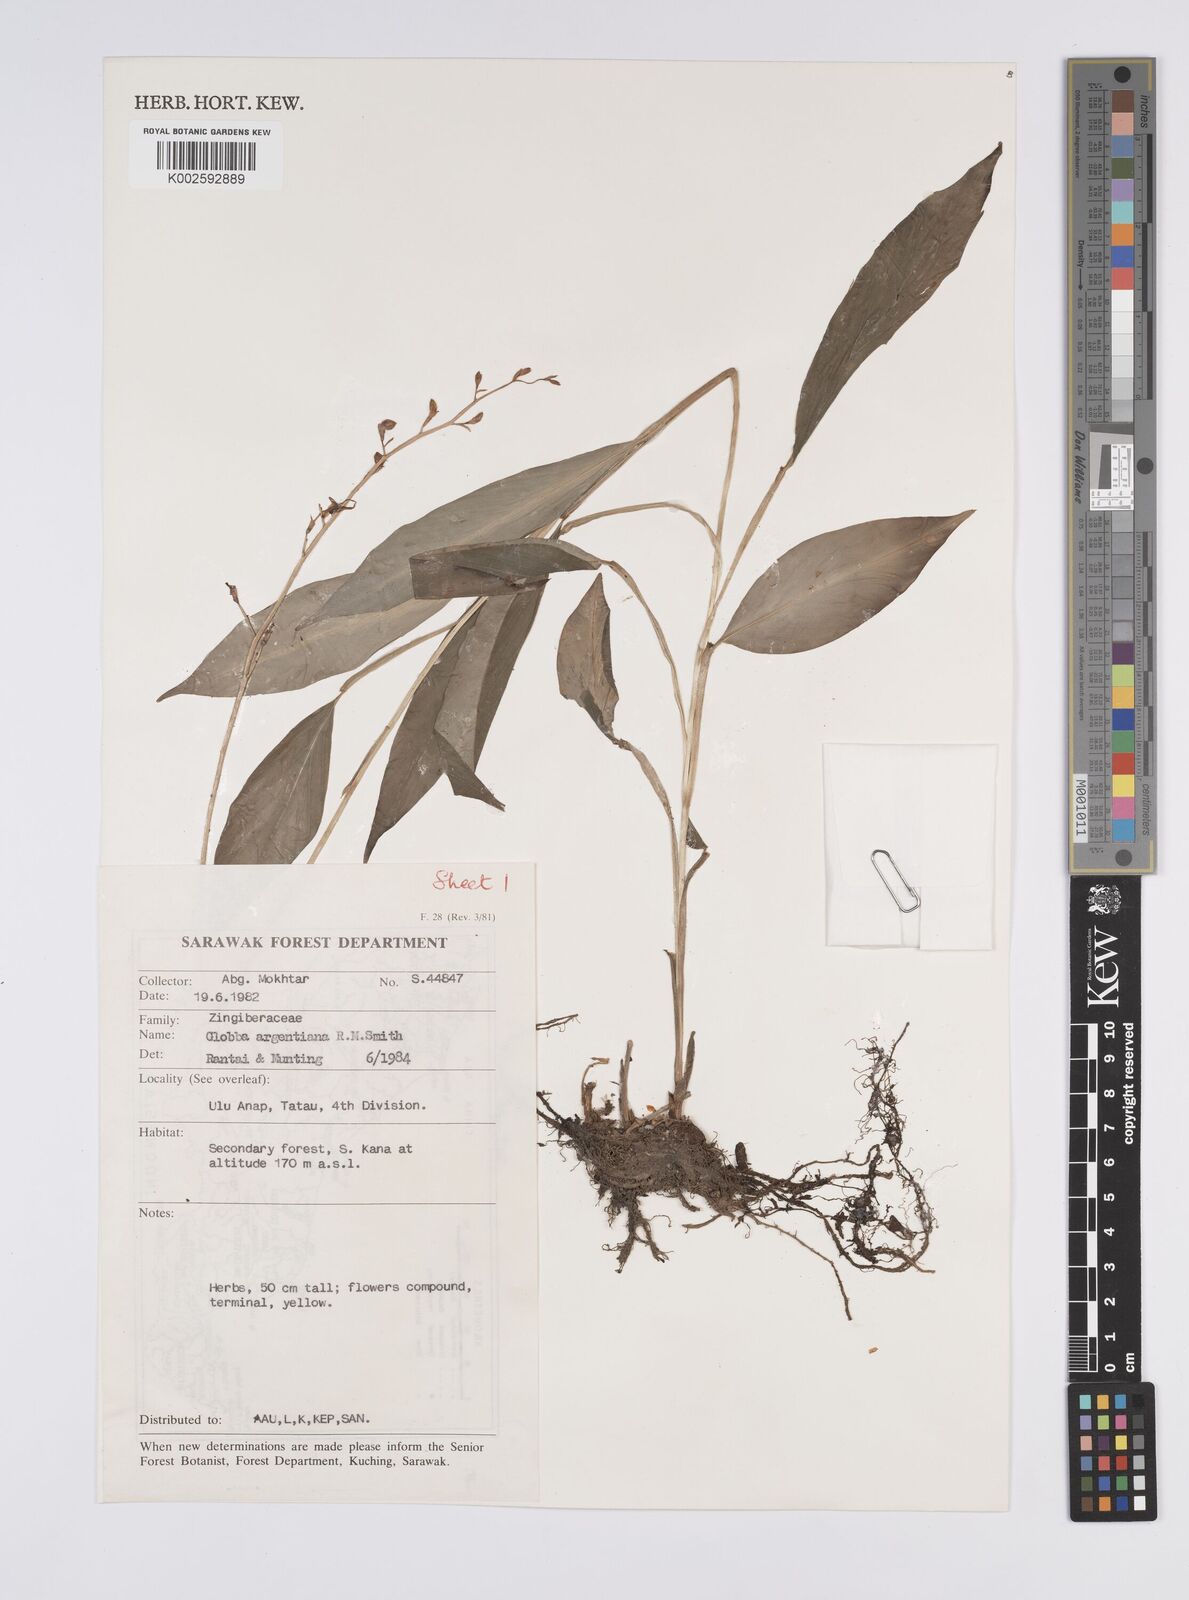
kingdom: Plantae
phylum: Tracheophyta
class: Liliopsida
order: Zingiberales
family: Zingiberaceae
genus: Globba
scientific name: Globba francisci
